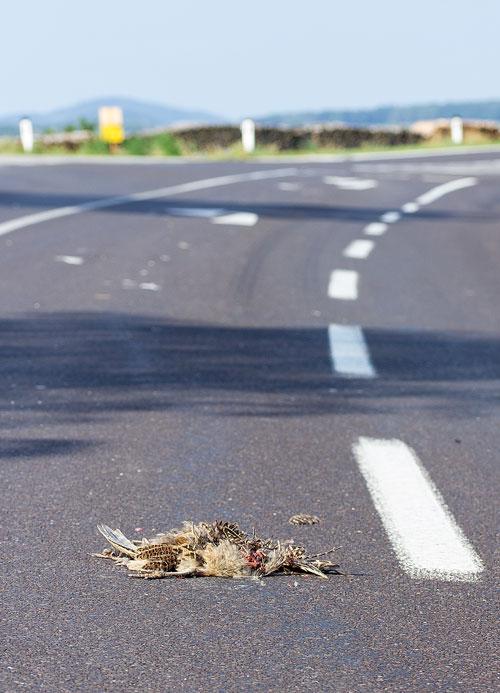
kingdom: Animalia
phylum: Chordata
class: Aves
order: Galliformes
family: Phasianidae
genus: Phasianus
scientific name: Phasianus colchicus
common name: Common pheasant
